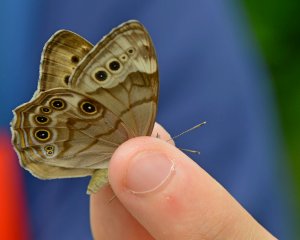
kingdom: Animalia
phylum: Arthropoda
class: Insecta
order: Lepidoptera
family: Nymphalidae
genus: Lethe
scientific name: Lethe anthedon
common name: Northern Pearly-Eye
